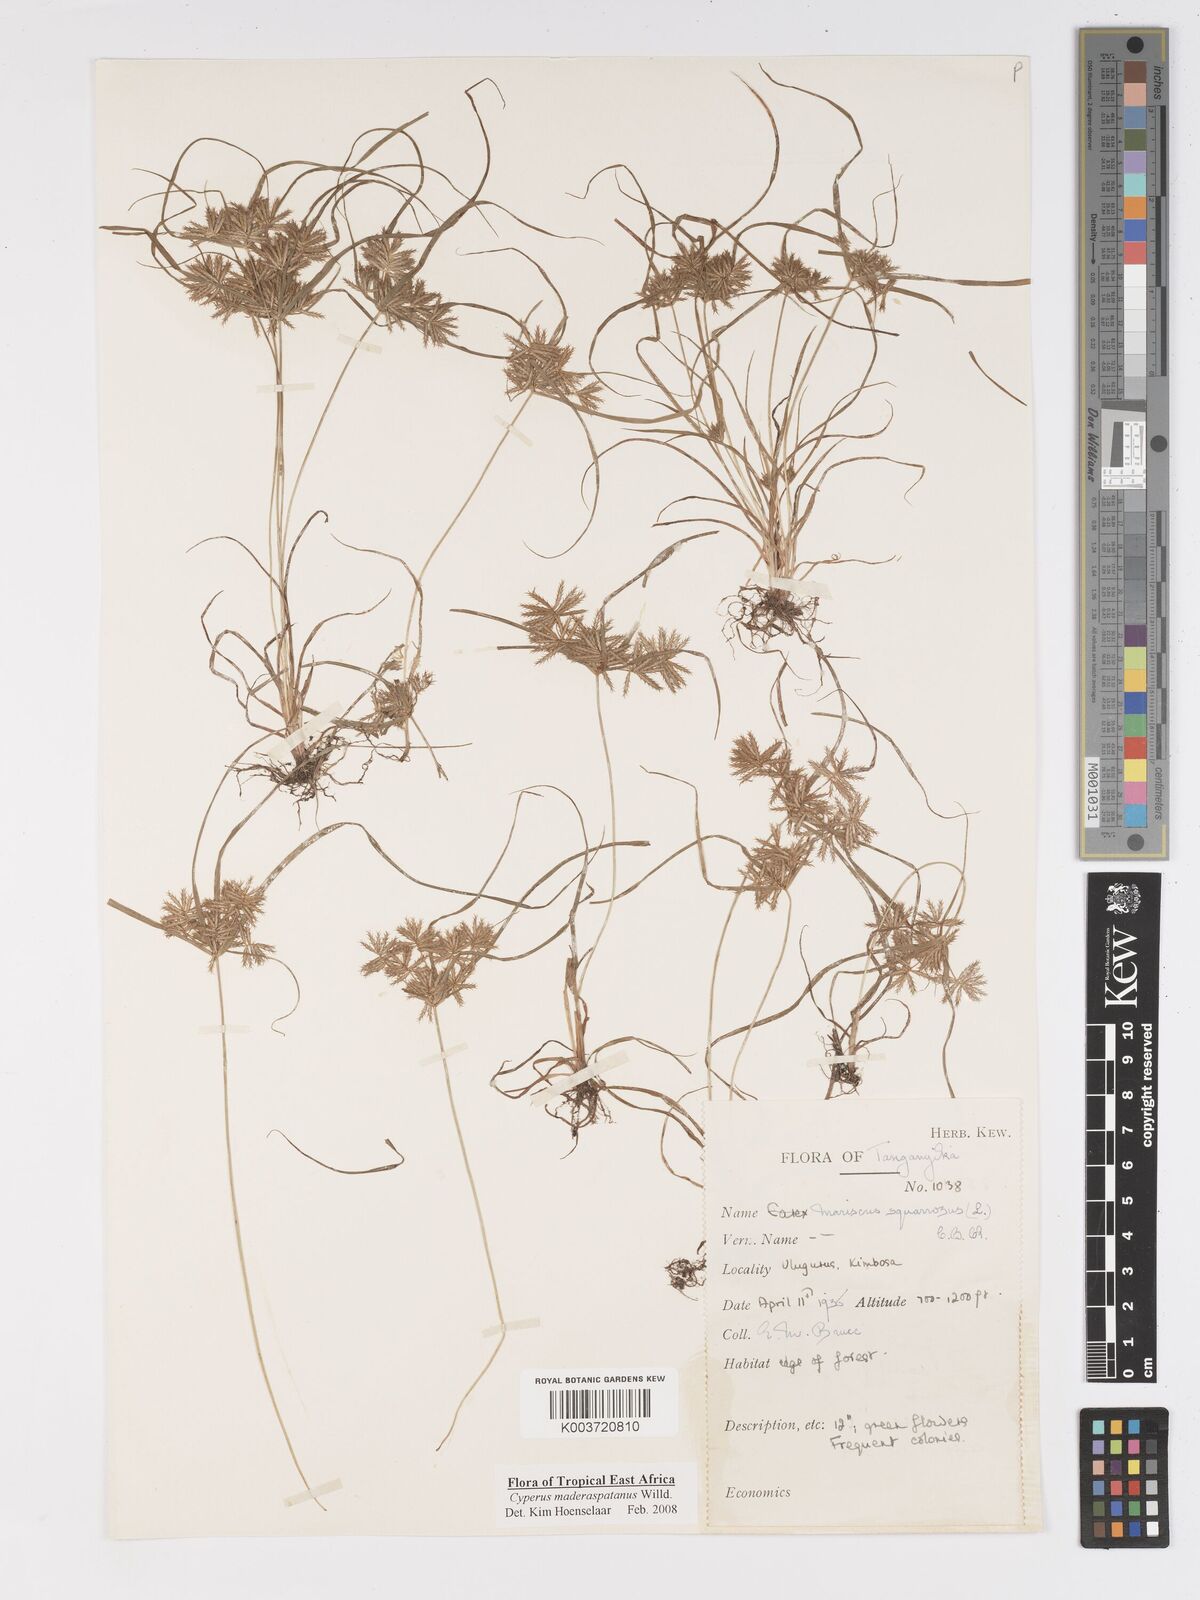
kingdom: Plantae
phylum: Tracheophyta
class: Liliopsida
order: Poales
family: Cyperaceae
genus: Cyperus
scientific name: Cyperus maderaspatanus
